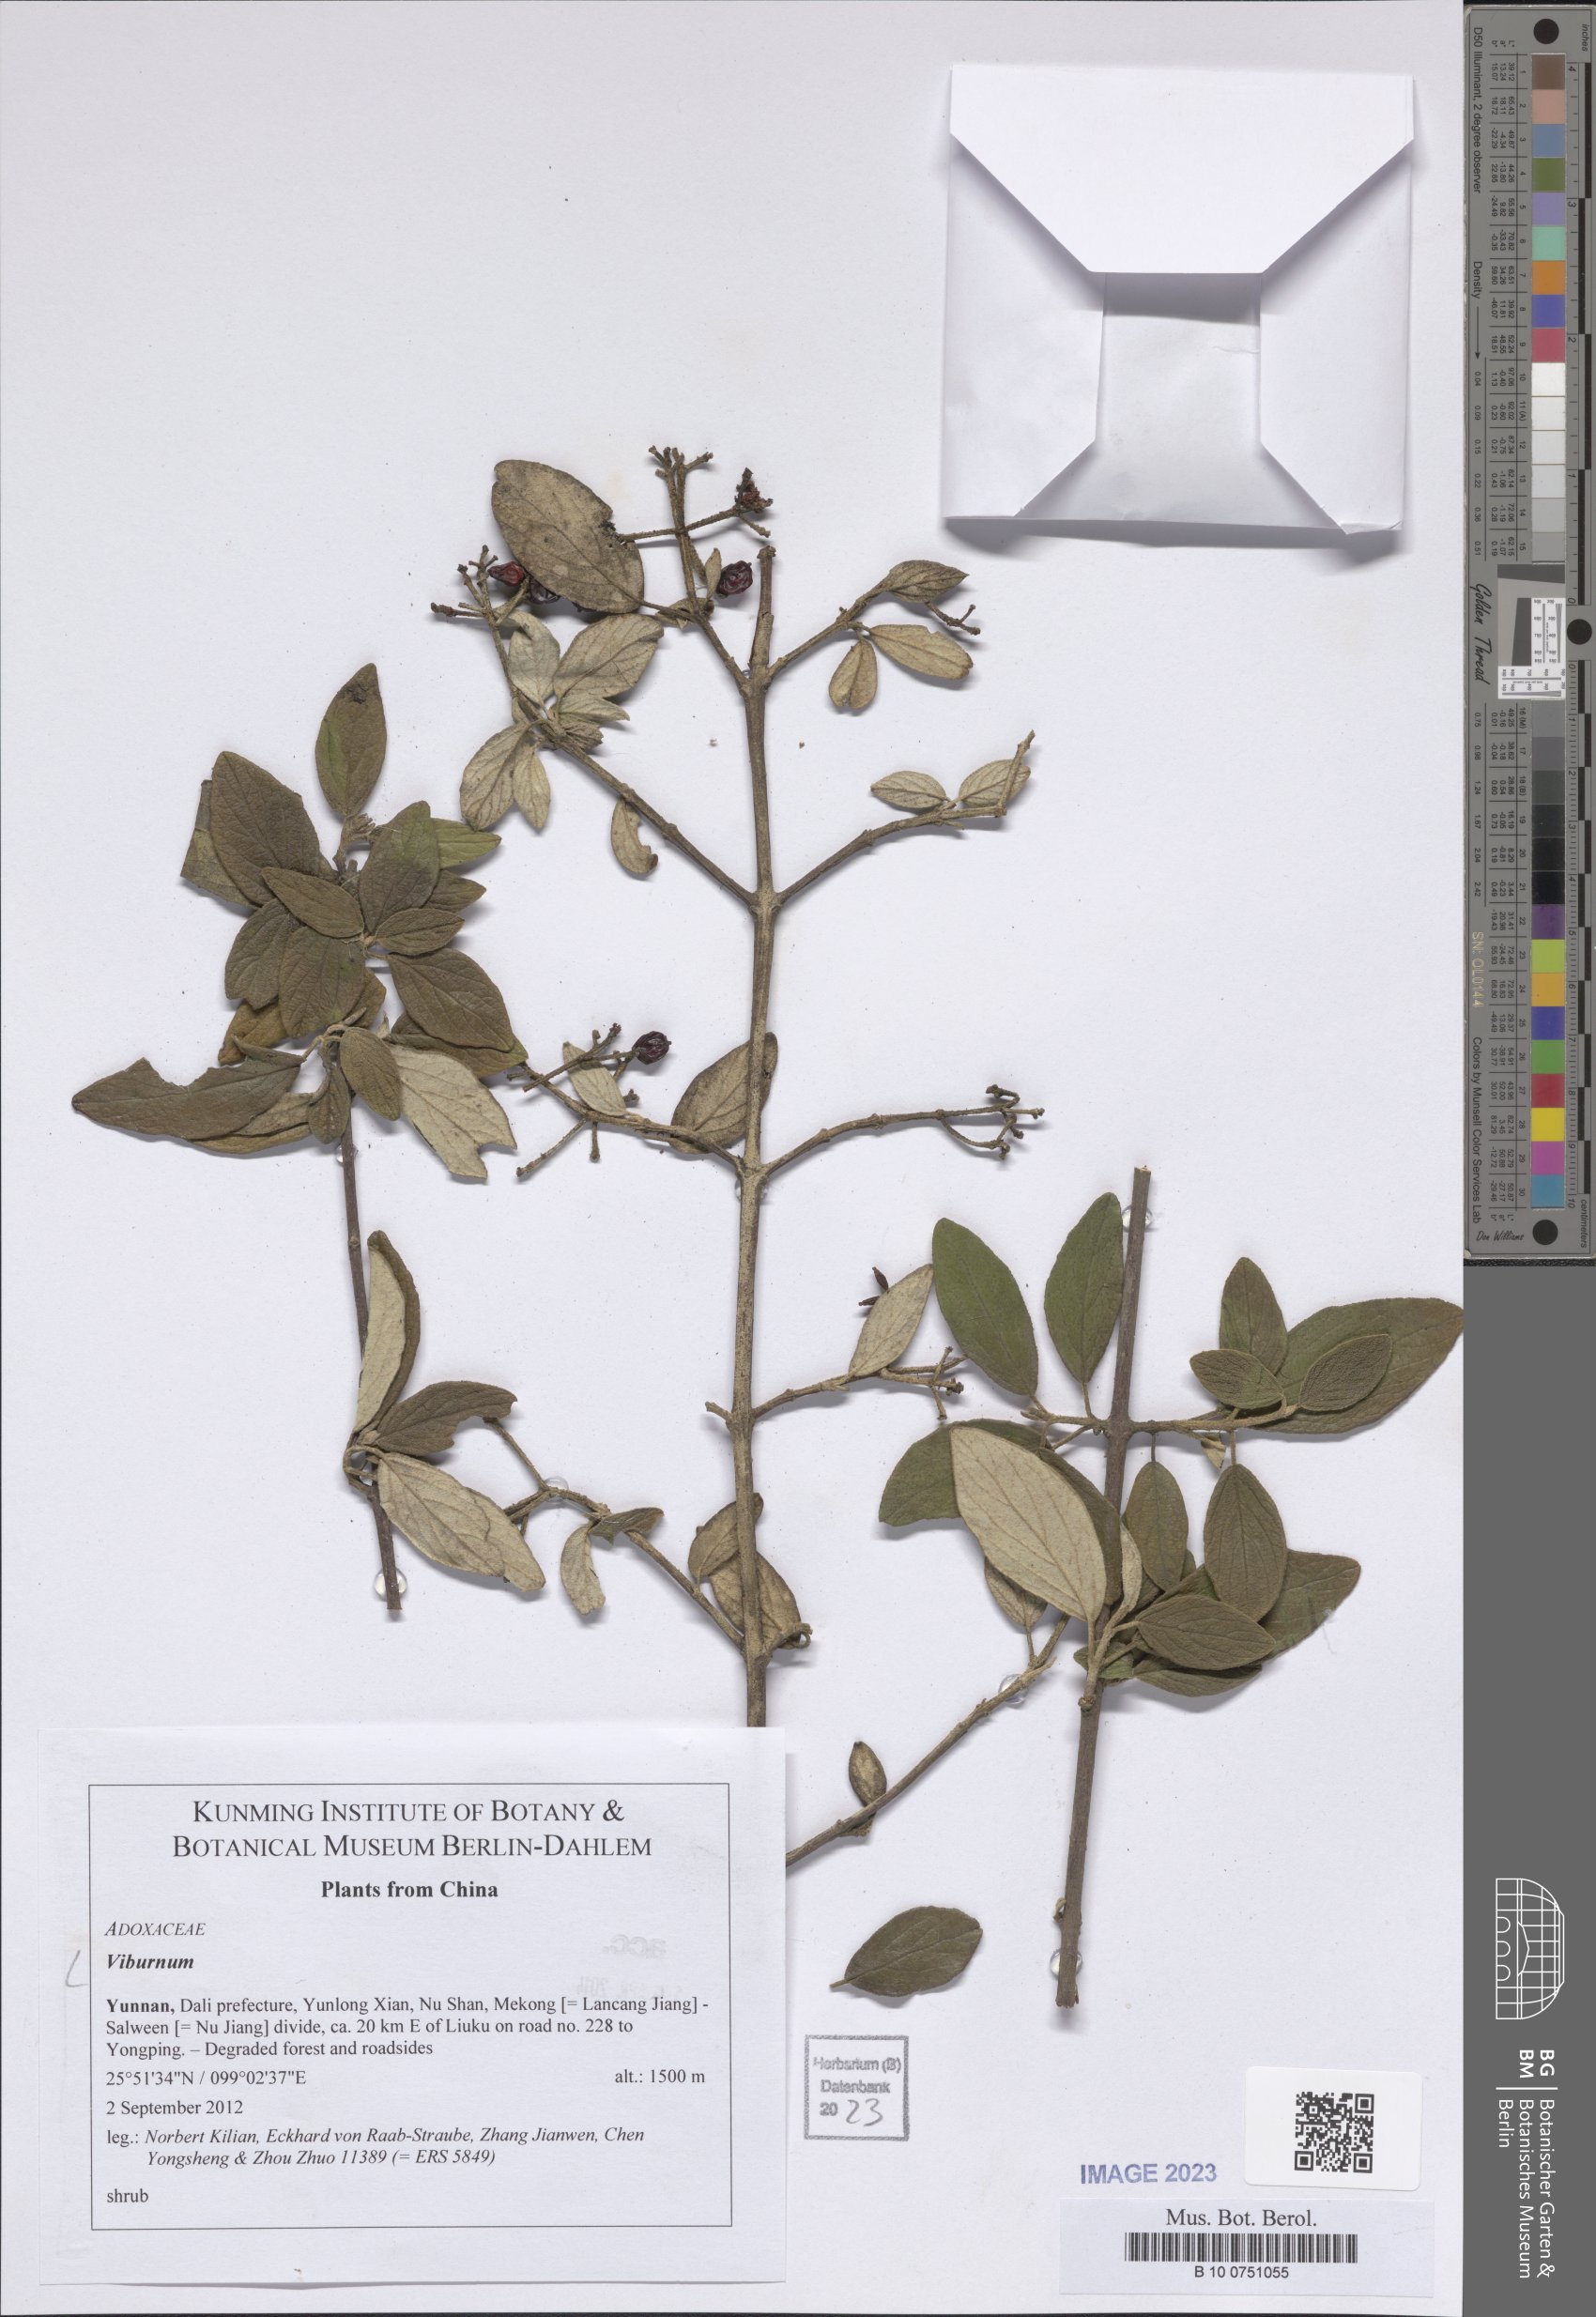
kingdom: Plantae
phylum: Tracheophyta
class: Magnoliopsida
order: Dipsacales
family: Viburnaceae
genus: Viburnum
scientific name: Viburnum
